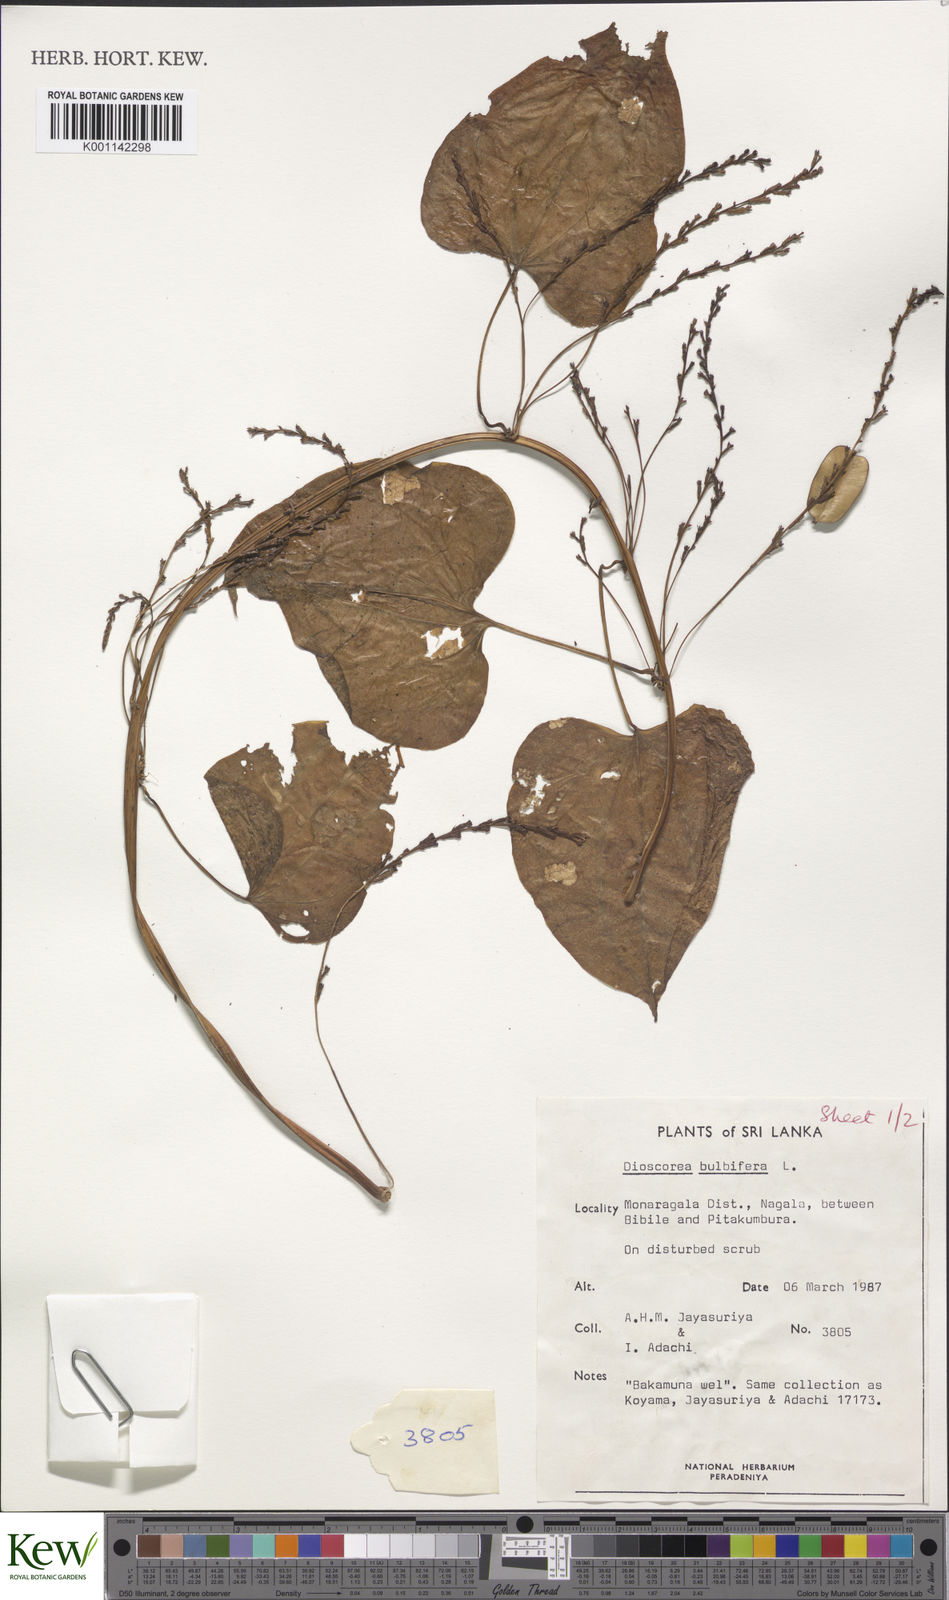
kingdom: Plantae
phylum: Tracheophyta
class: Liliopsida
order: Dioscoreales
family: Dioscoreaceae
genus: Dioscorea
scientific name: Dioscorea bulbifera
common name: Air yam
